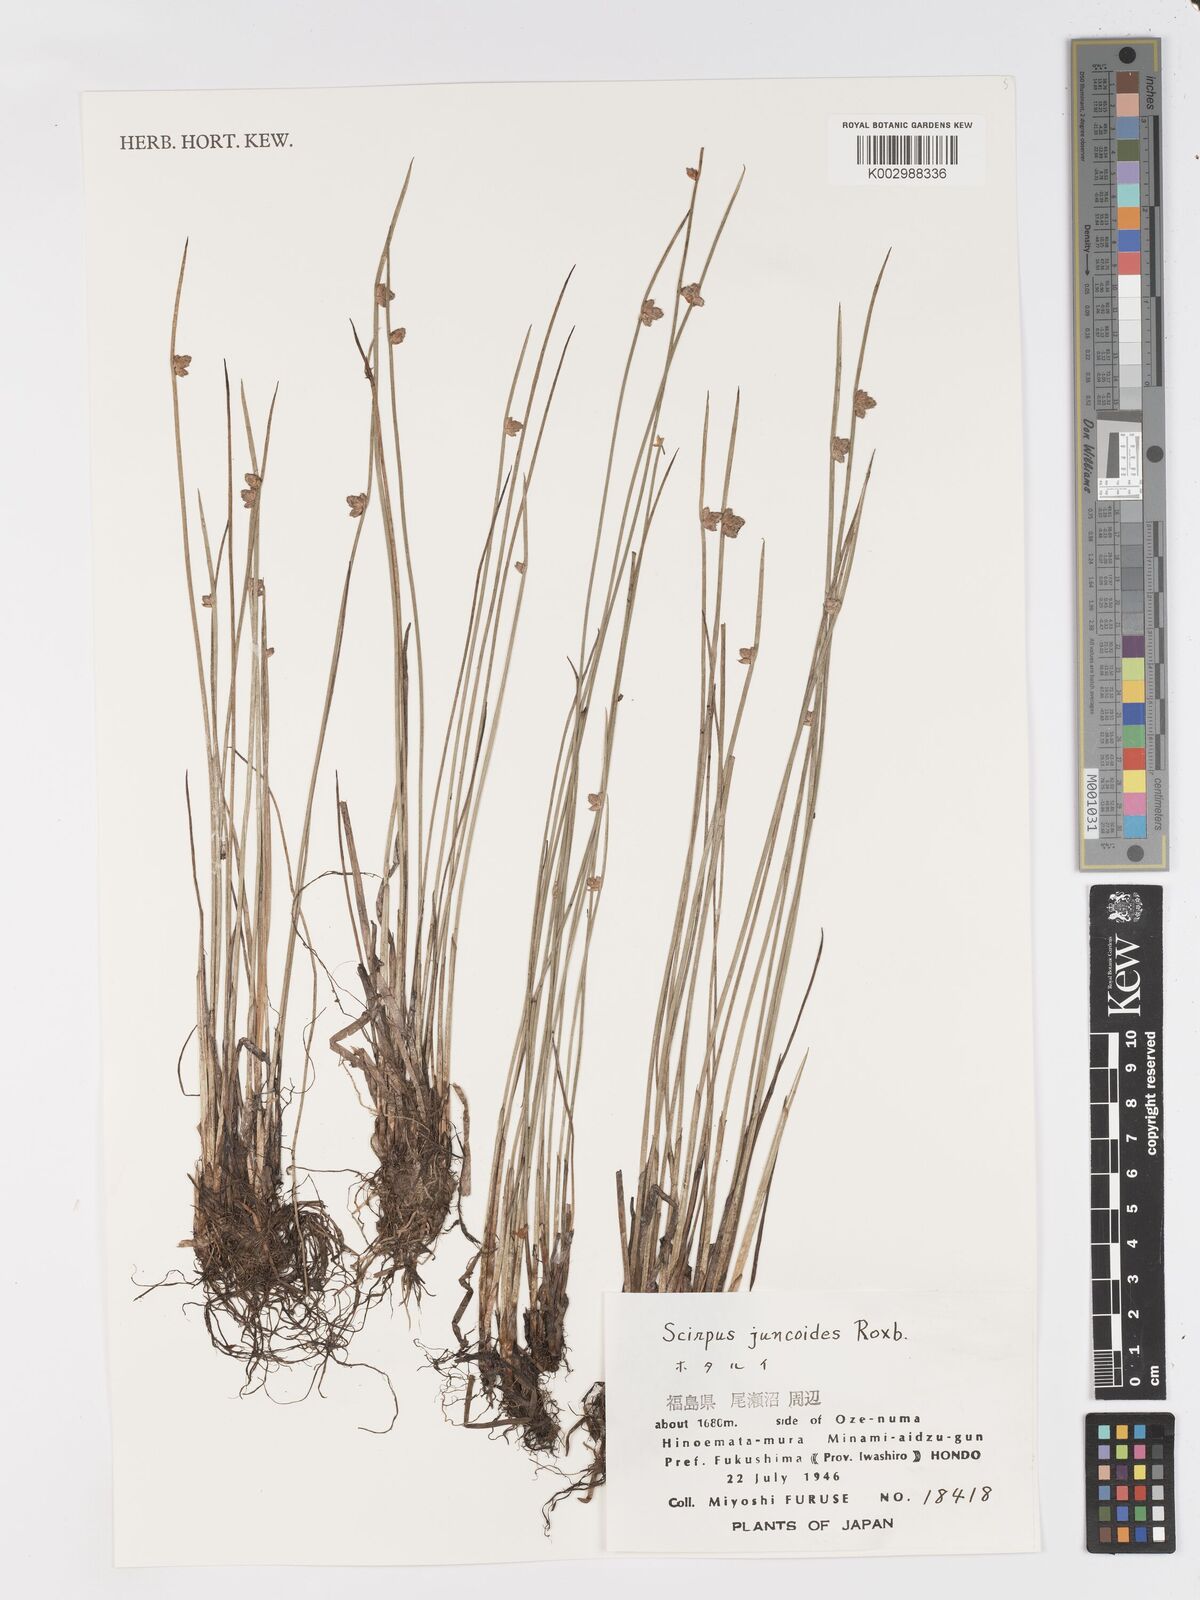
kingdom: Plantae
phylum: Tracheophyta
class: Liliopsida
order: Poales
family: Cyperaceae
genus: Schoenoplectiella
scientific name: Schoenoplectiella juncoides
